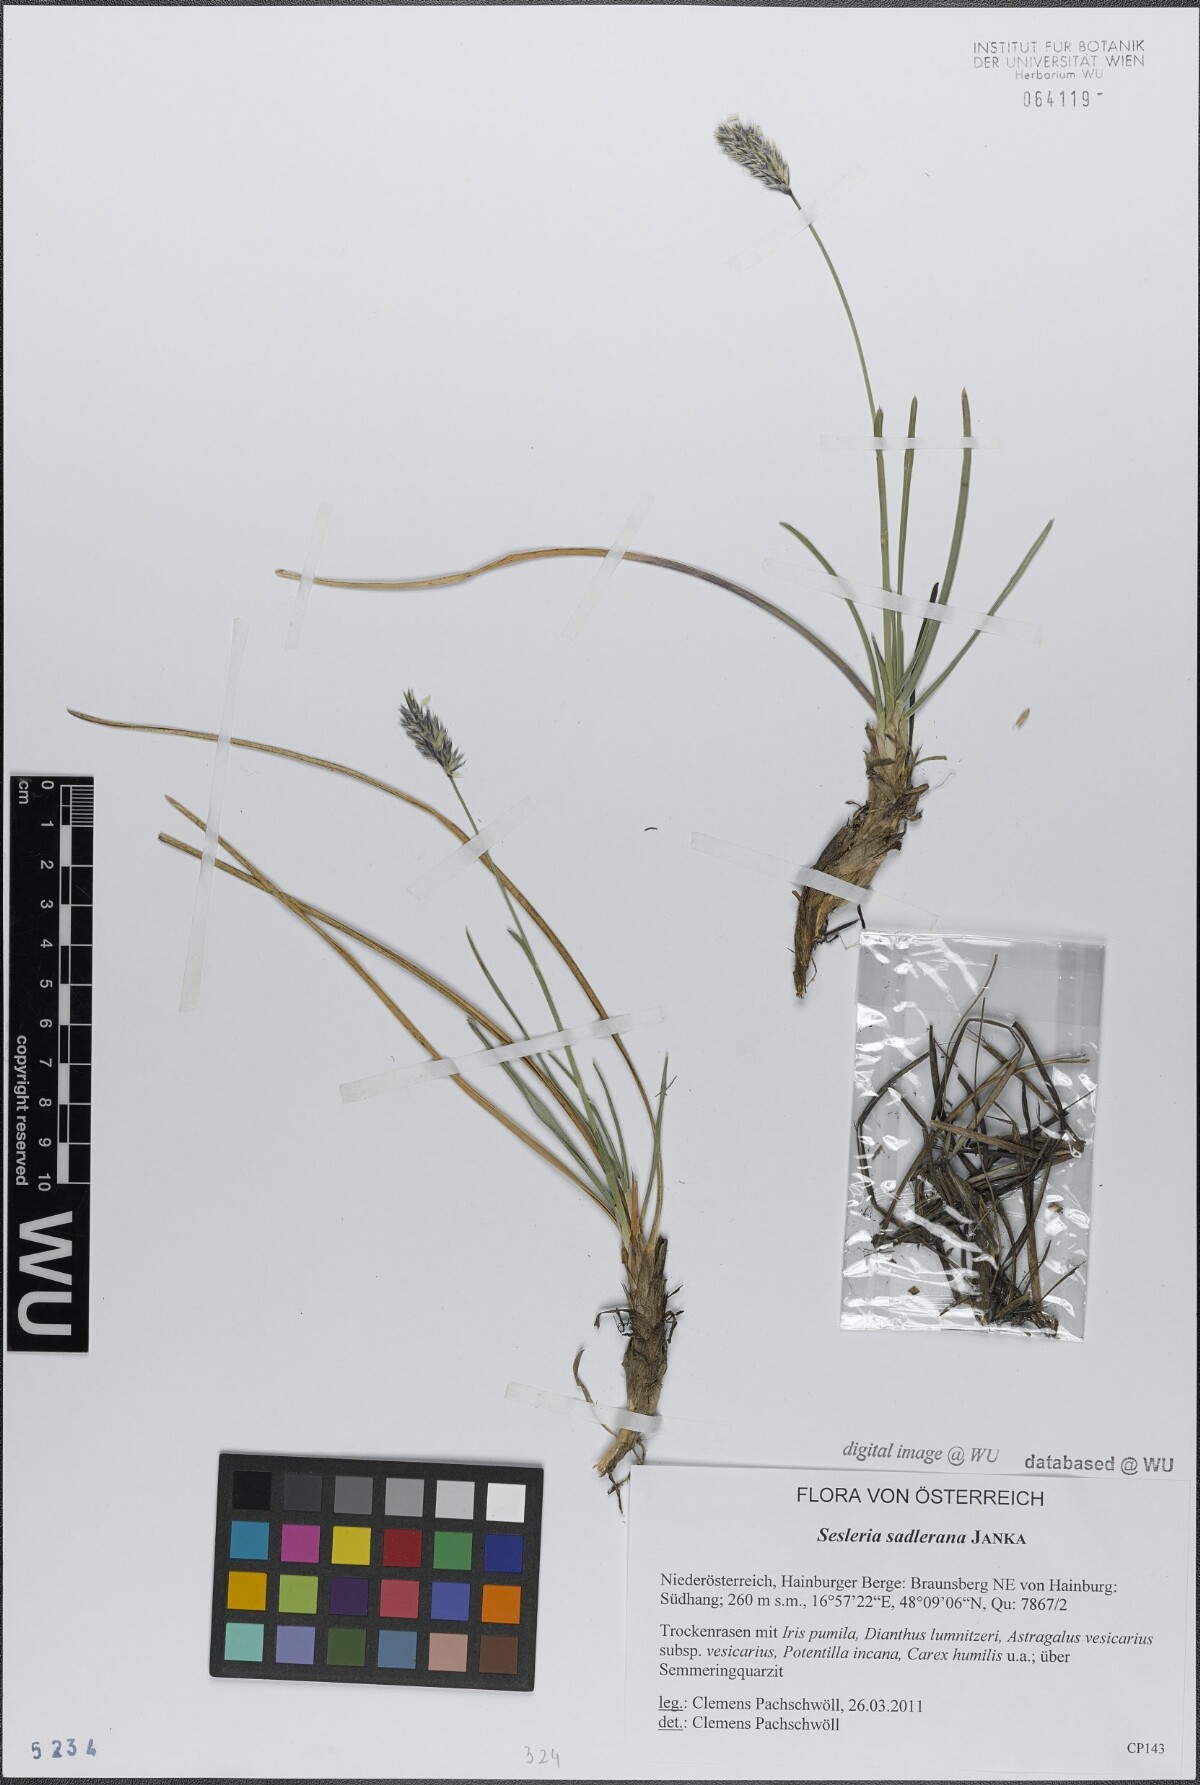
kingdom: Plantae
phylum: Tracheophyta
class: Liliopsida
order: Poales
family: Poaceae
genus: Sesleria
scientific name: Sesleria sadleriana
